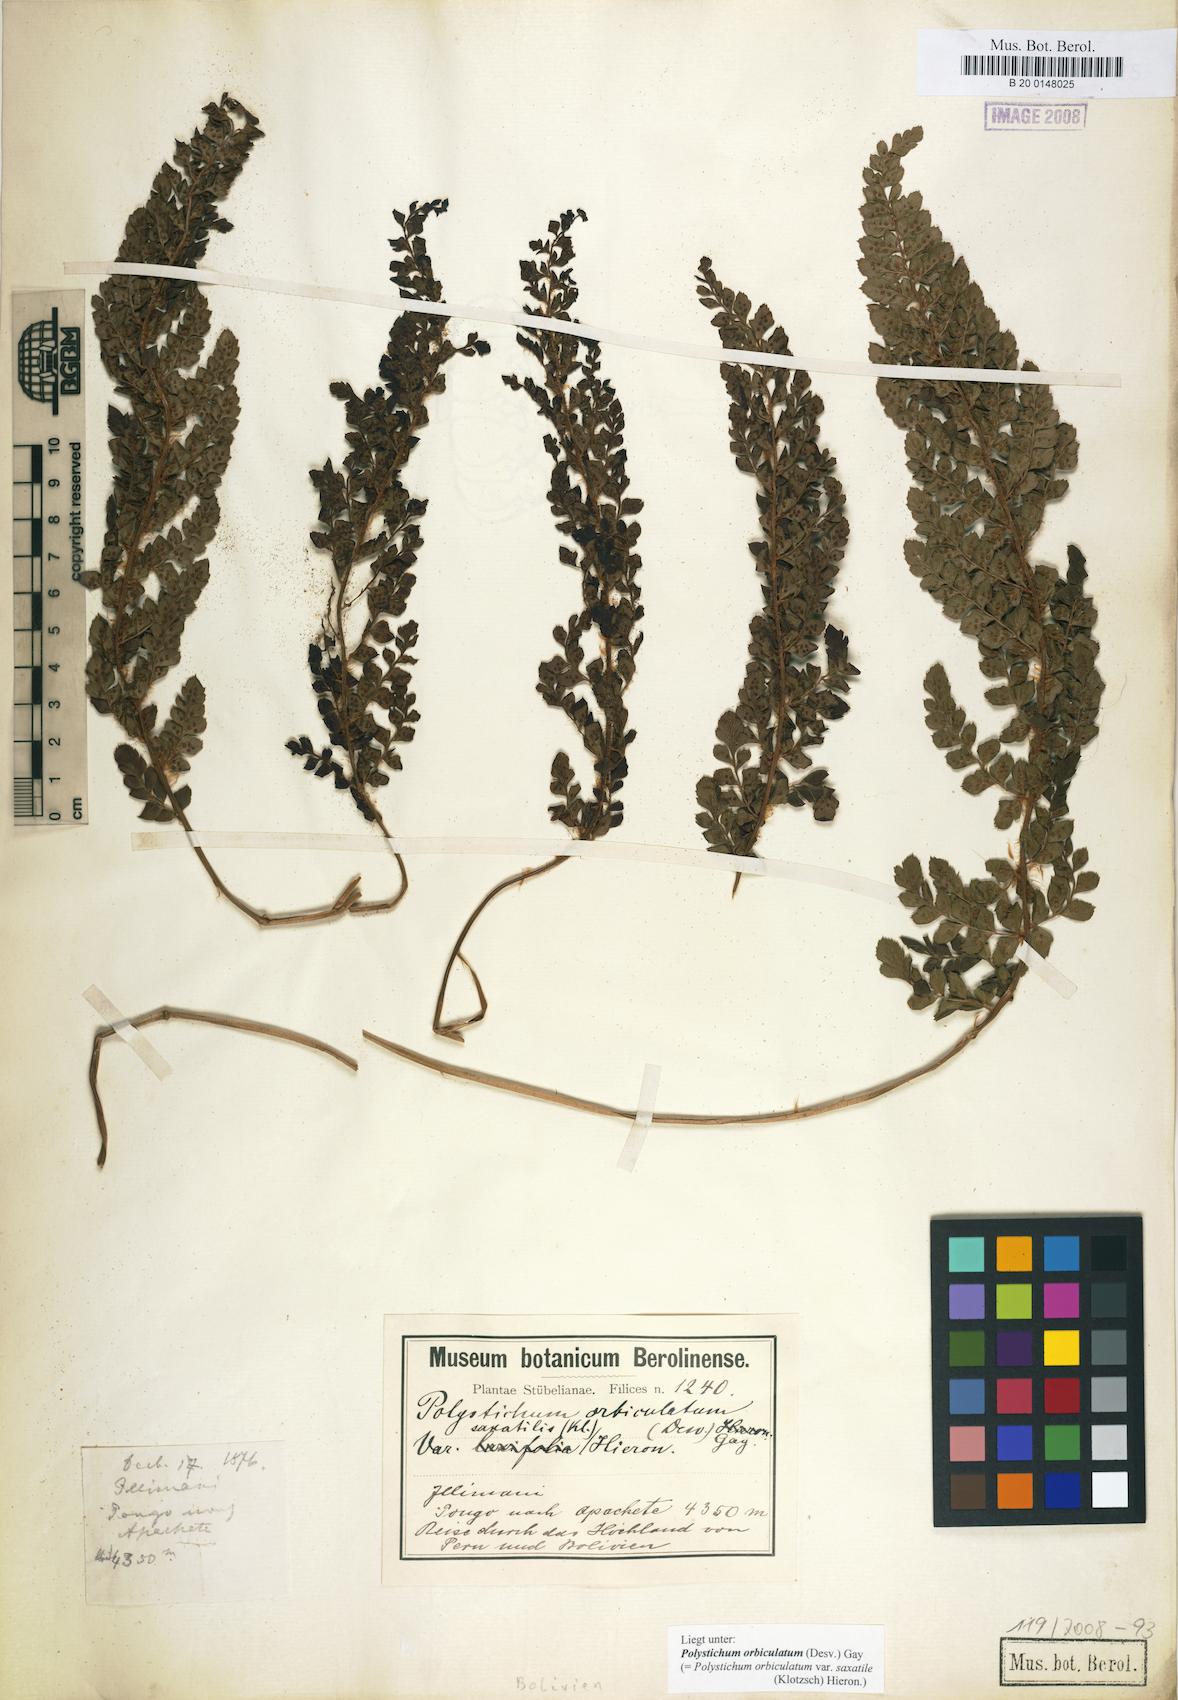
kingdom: Plantae
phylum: Tracheophyta
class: Polypodiopsida
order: Polypodiales
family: Dryopteridaceae
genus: Polystichum
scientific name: Polystichum orbiculatum
